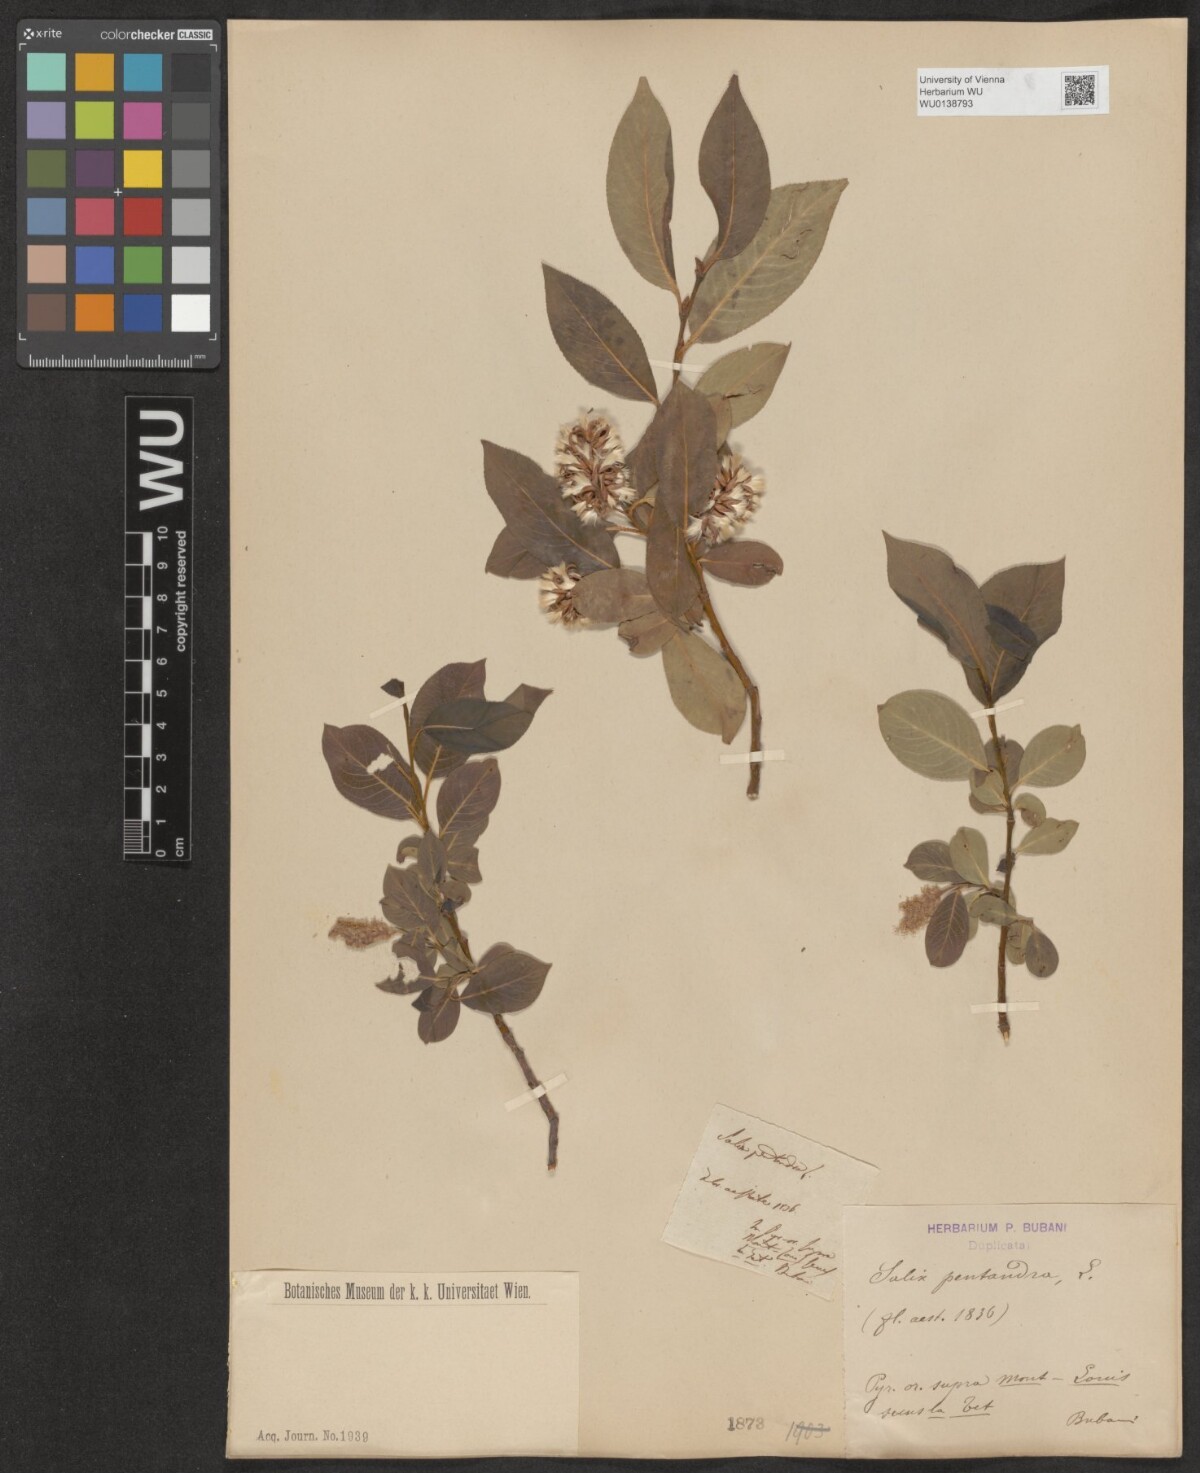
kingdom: Plantae
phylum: Tracheophyta
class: Magnoliopsida
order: Malpighiales
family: Salicaceae
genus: Salix
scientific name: Salix pentandra
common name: Bay willow
